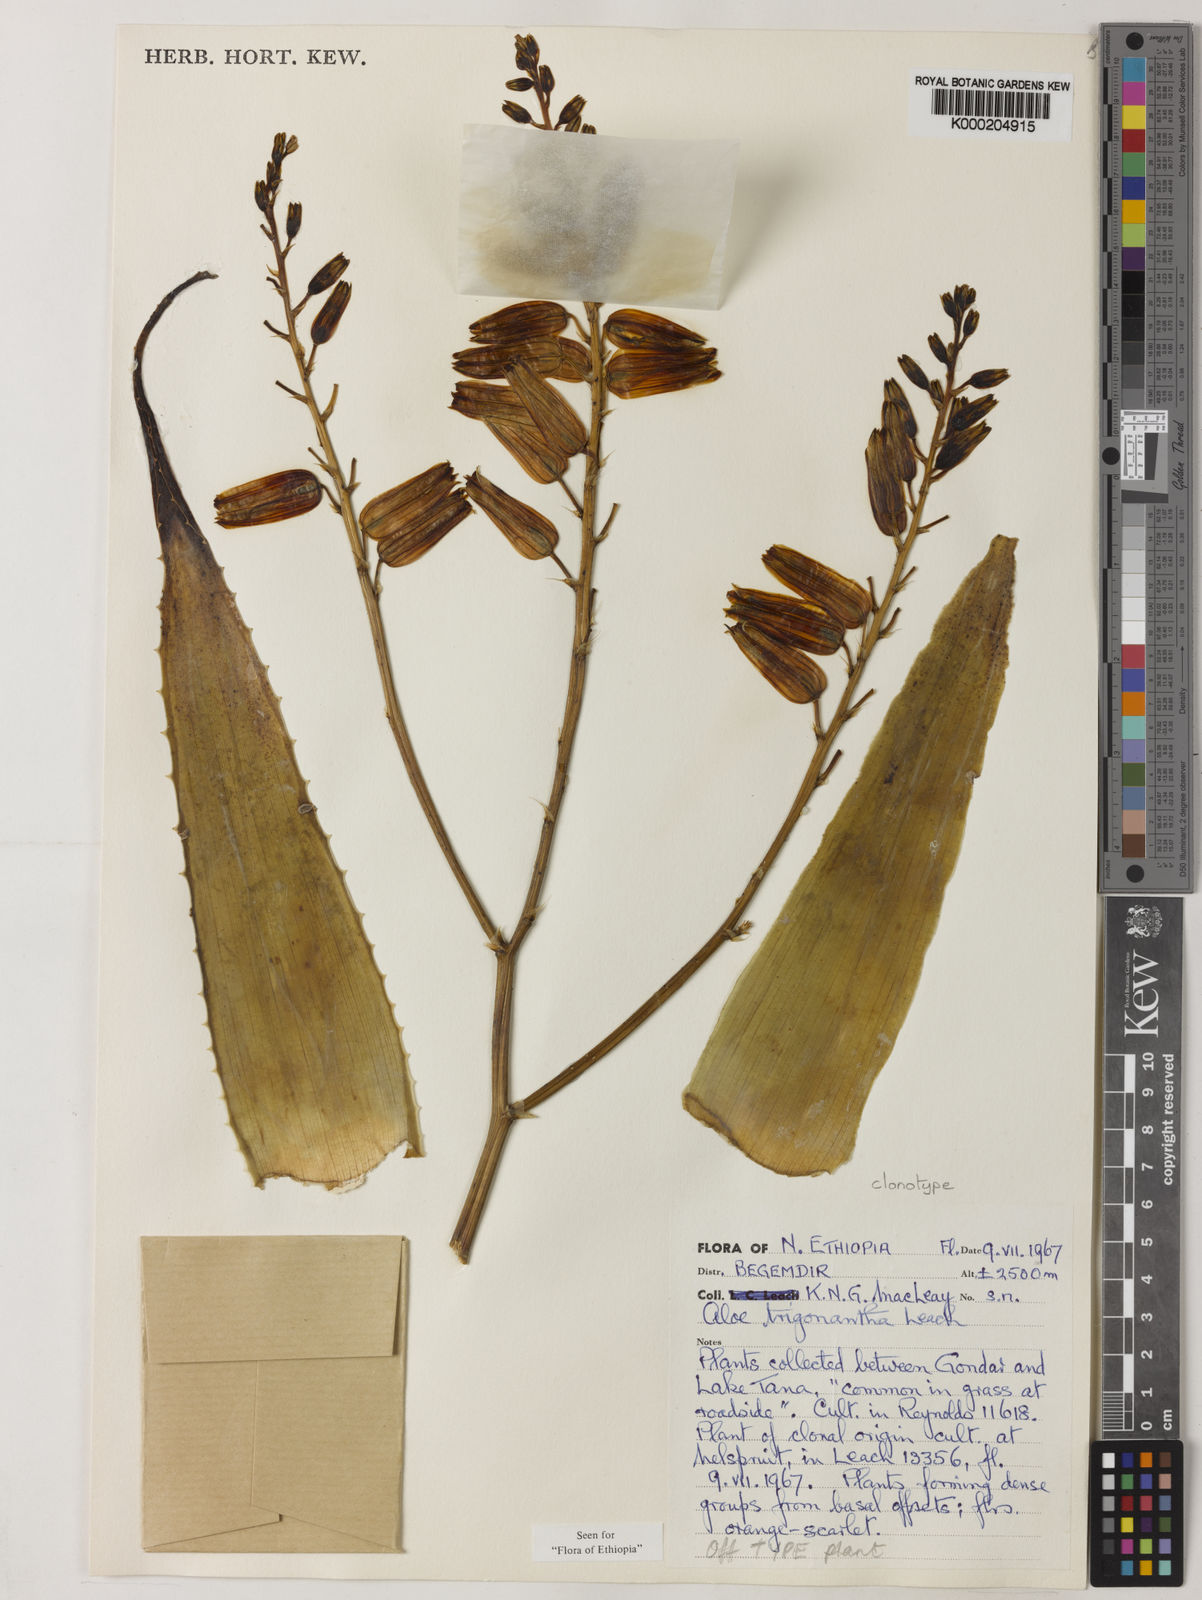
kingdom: Plantae
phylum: Tracheophyta
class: Liliopsida
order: Asparagales
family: Asphodelaceae
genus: Aloe
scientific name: Aloe trigonantha
